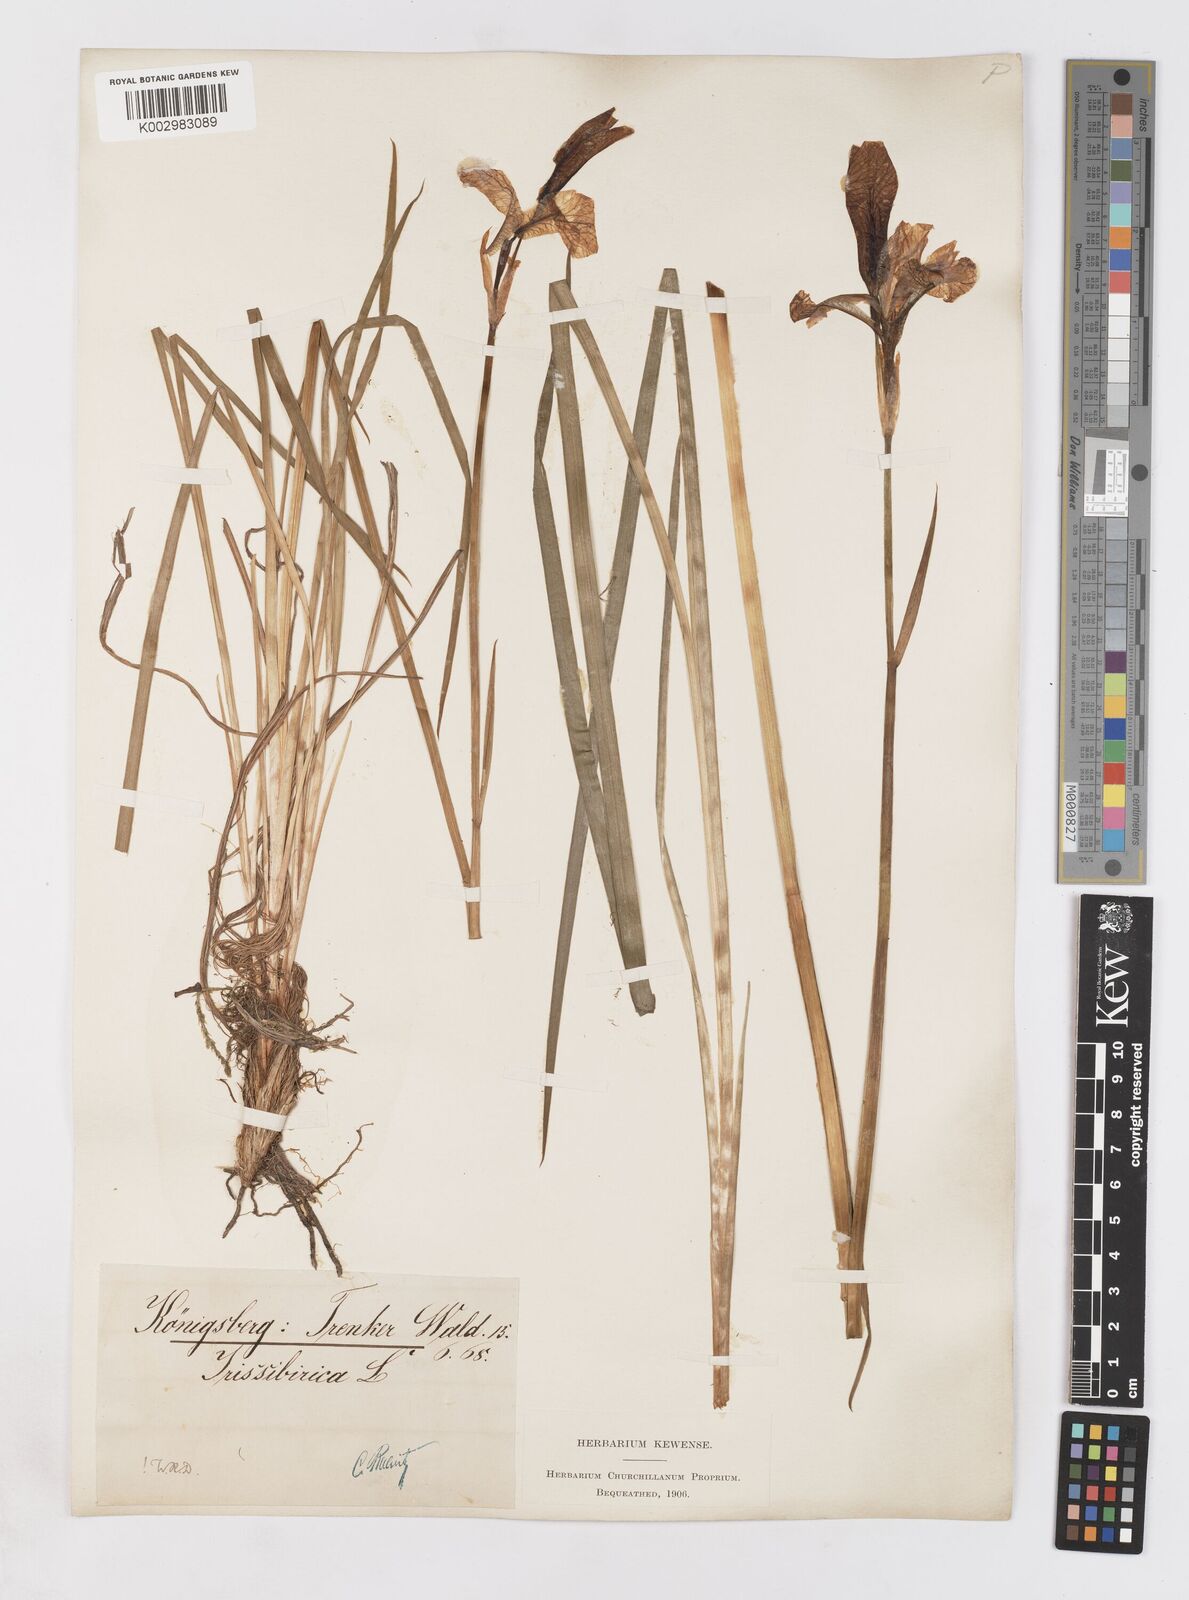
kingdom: Plantae
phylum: Tracheophyta
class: Liliopsida
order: Asparagales
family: Iridaceae
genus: Iris
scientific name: Iris sibirica
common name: Siberian iris
